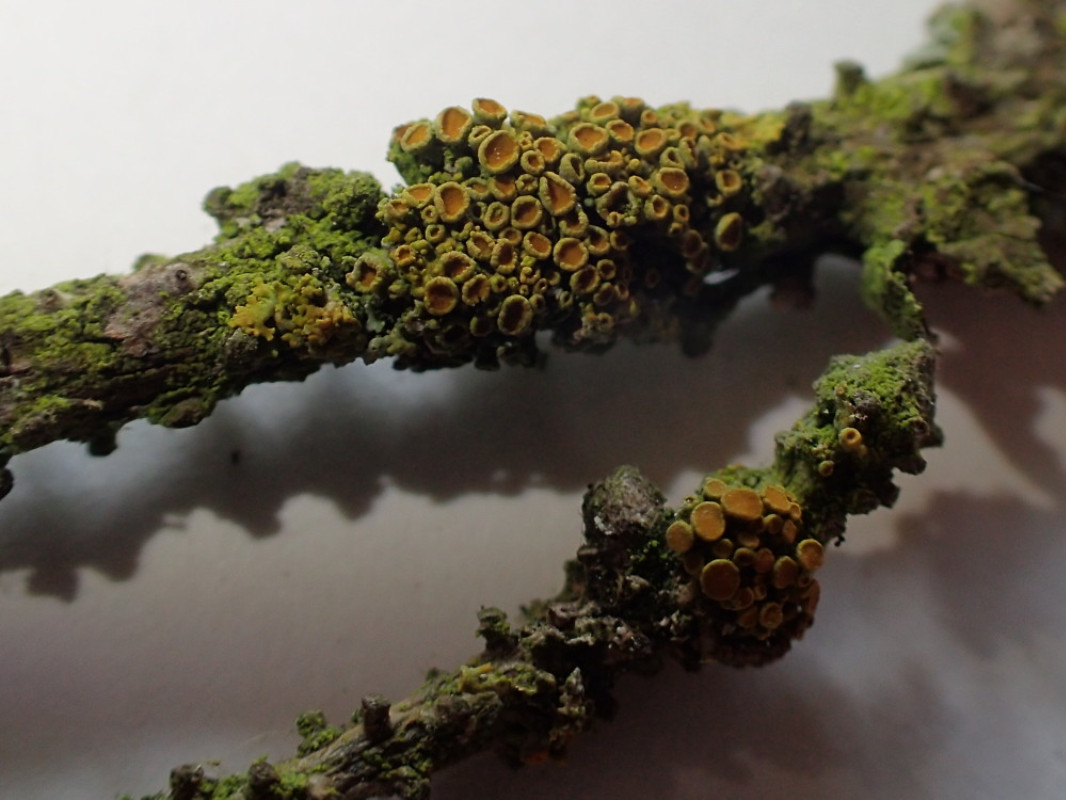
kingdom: Fungi
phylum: Ascomycota
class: Lecanoromycetes
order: Teloschistales
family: Teloschistaceae
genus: Polycauliona
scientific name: Polycauliona polycarpa
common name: mangefrugtet orangelav
